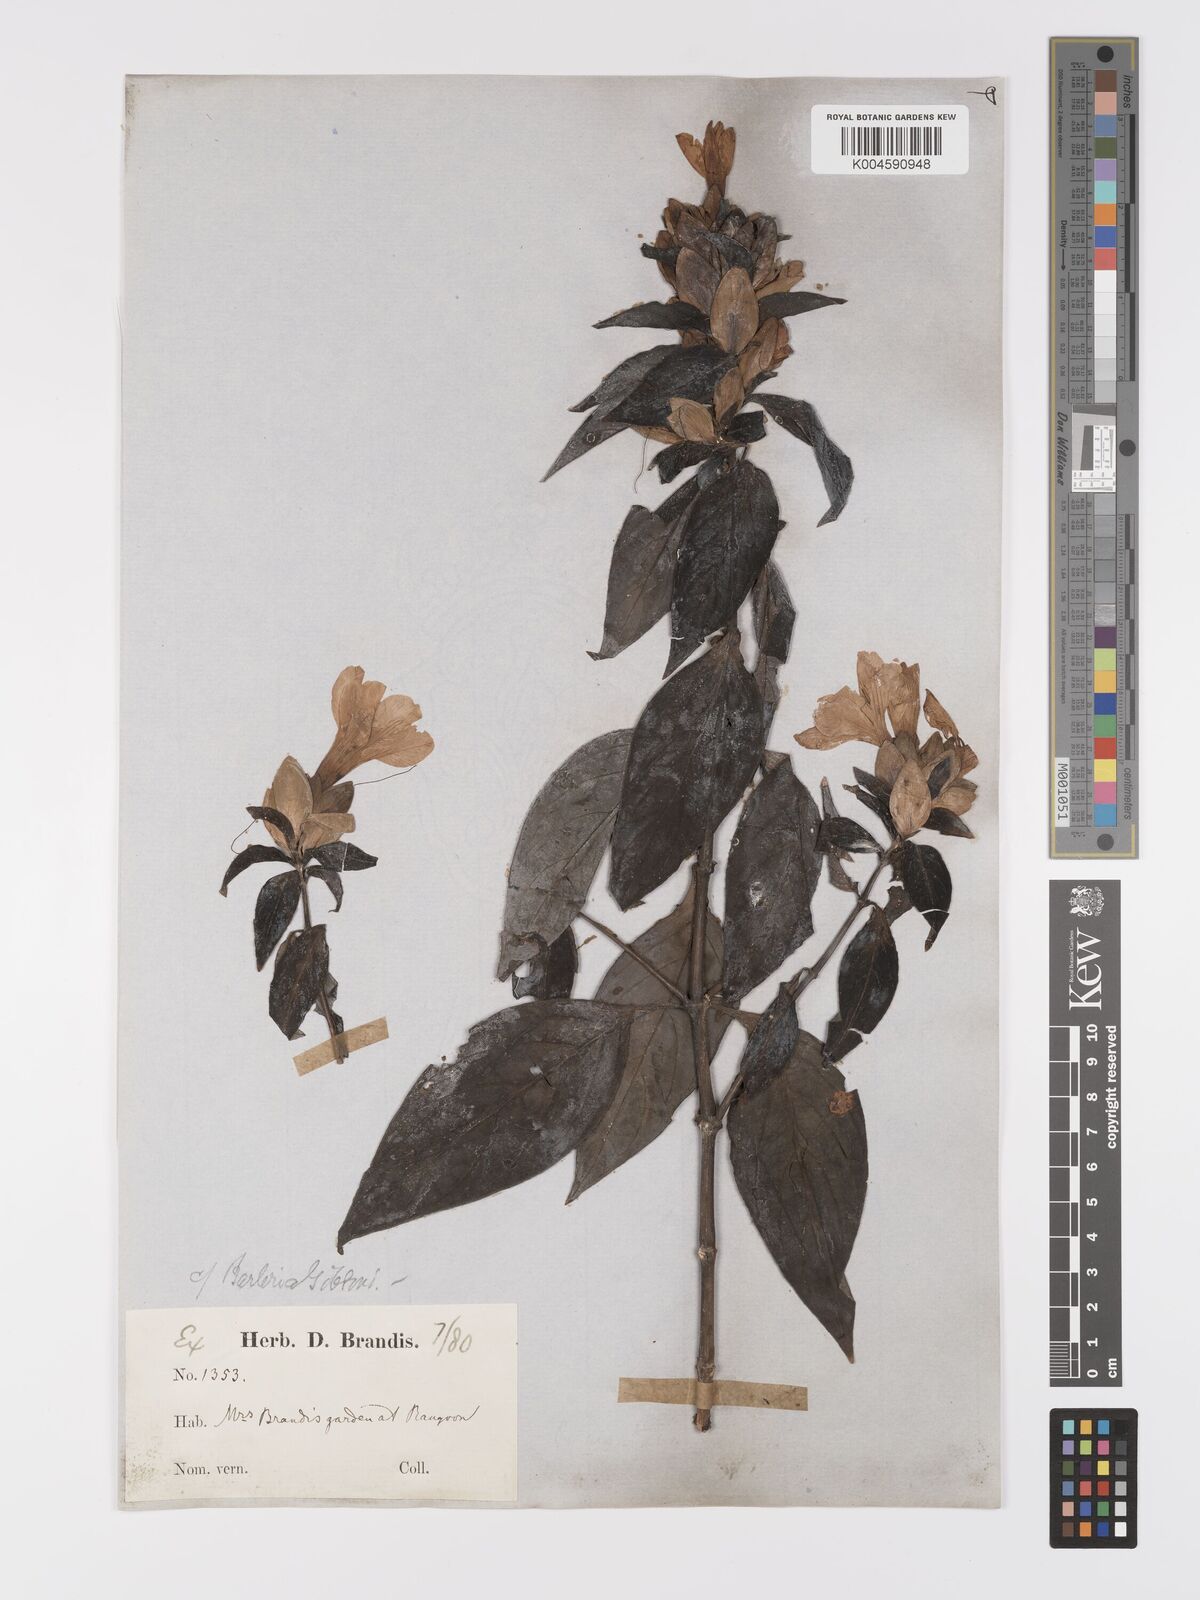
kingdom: Plantae
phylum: Tracheophyta
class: Magnoliopsida
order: Lamiales
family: Acanthaceae
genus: Barleria
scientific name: Barleria gibsonii
